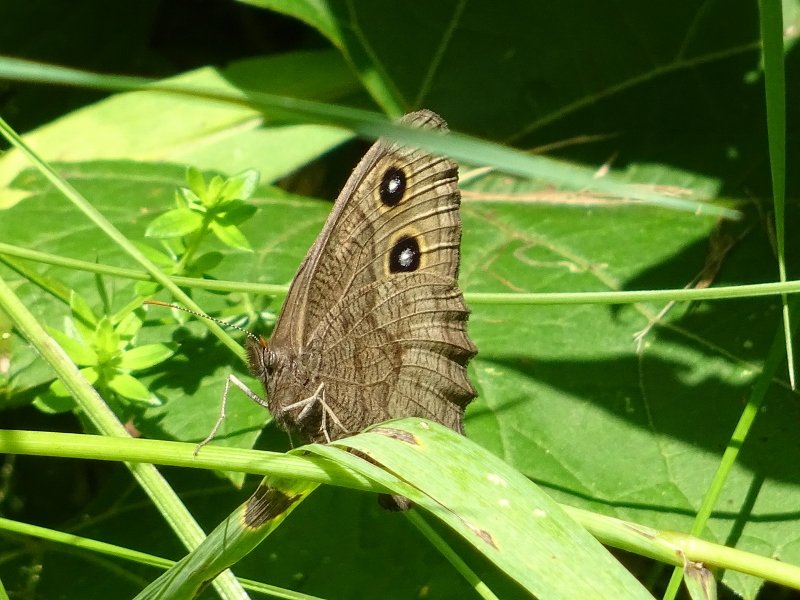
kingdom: Animalia
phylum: Arthropoda
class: Insecta
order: Lepidoptera
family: Nymphalidae
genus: Cercyonis
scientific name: Cercyonis pegala
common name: Common Wood-Nymph
